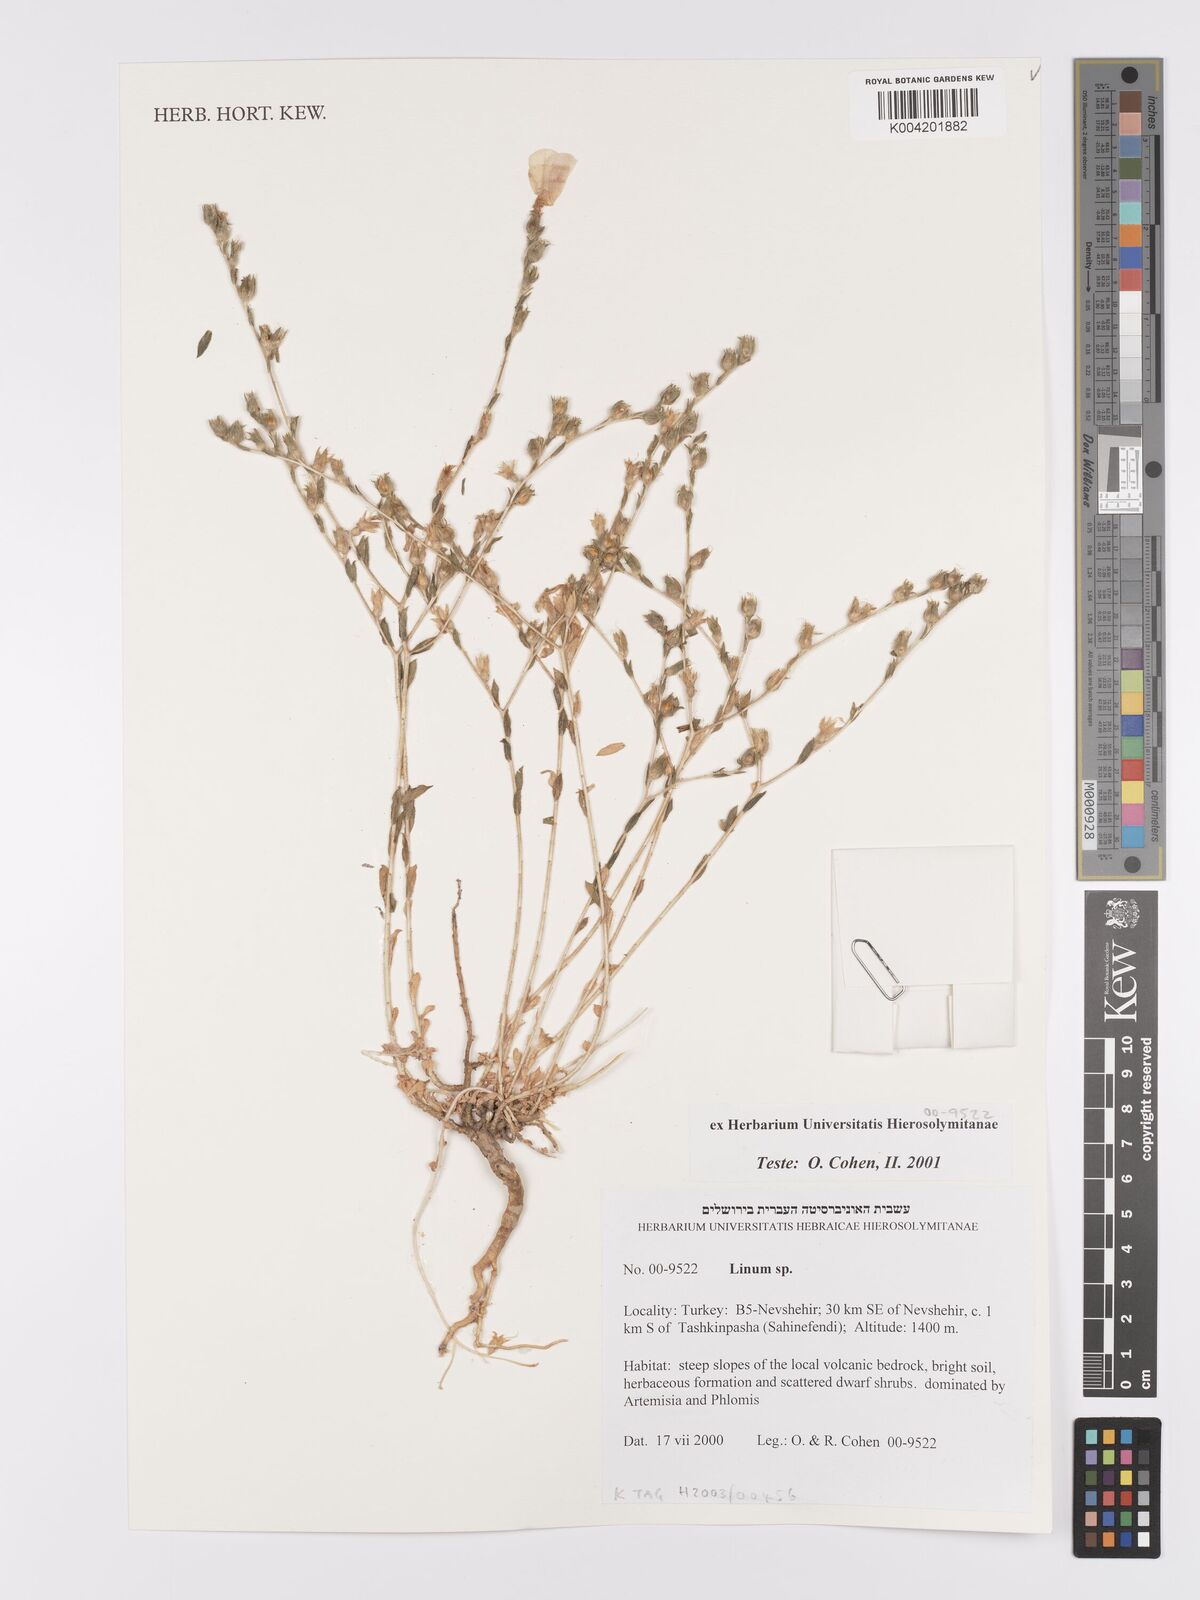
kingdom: Plantae
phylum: Tracheophyta
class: Magnoliopsida
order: Malpighiales
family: Linaceae
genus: Linum
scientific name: Linum
